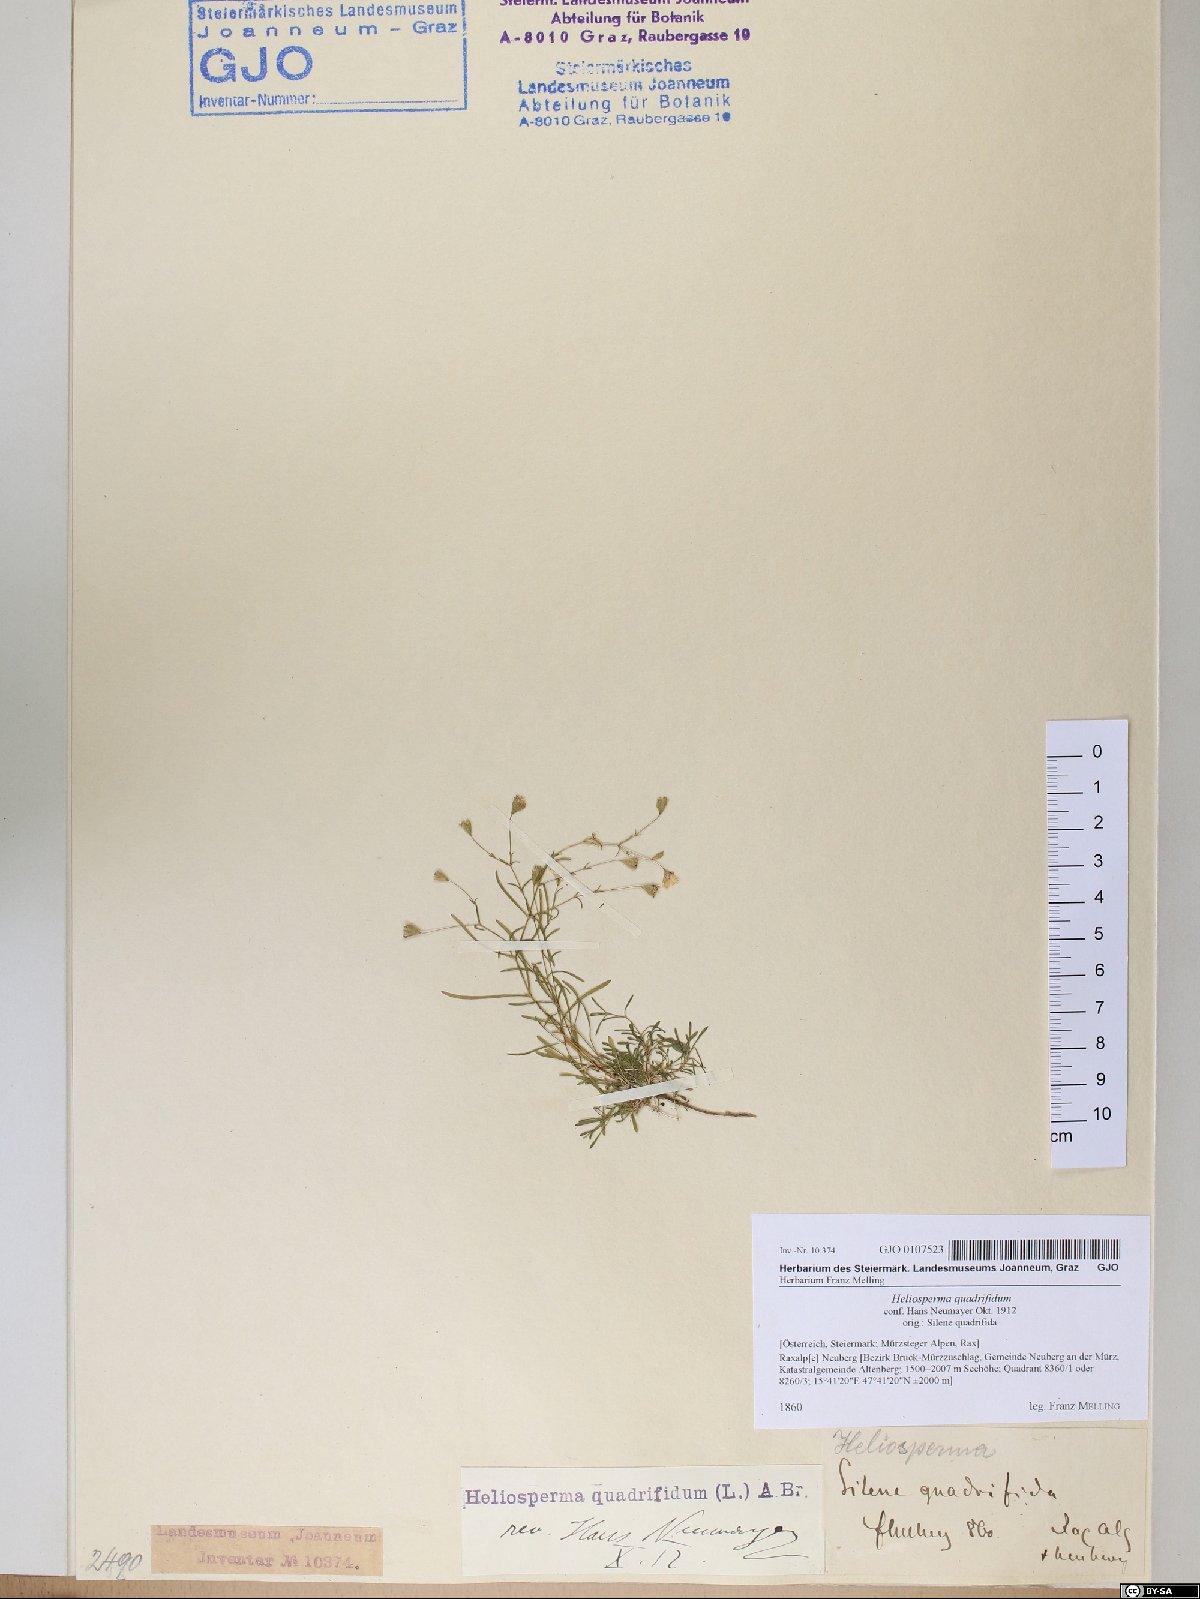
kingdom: Plantae
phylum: Tracheophyta
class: Magnoliopsida
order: Caryophyllales
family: Caryophyllaceae
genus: Heliosperma
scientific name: Heliosperma alpestre
